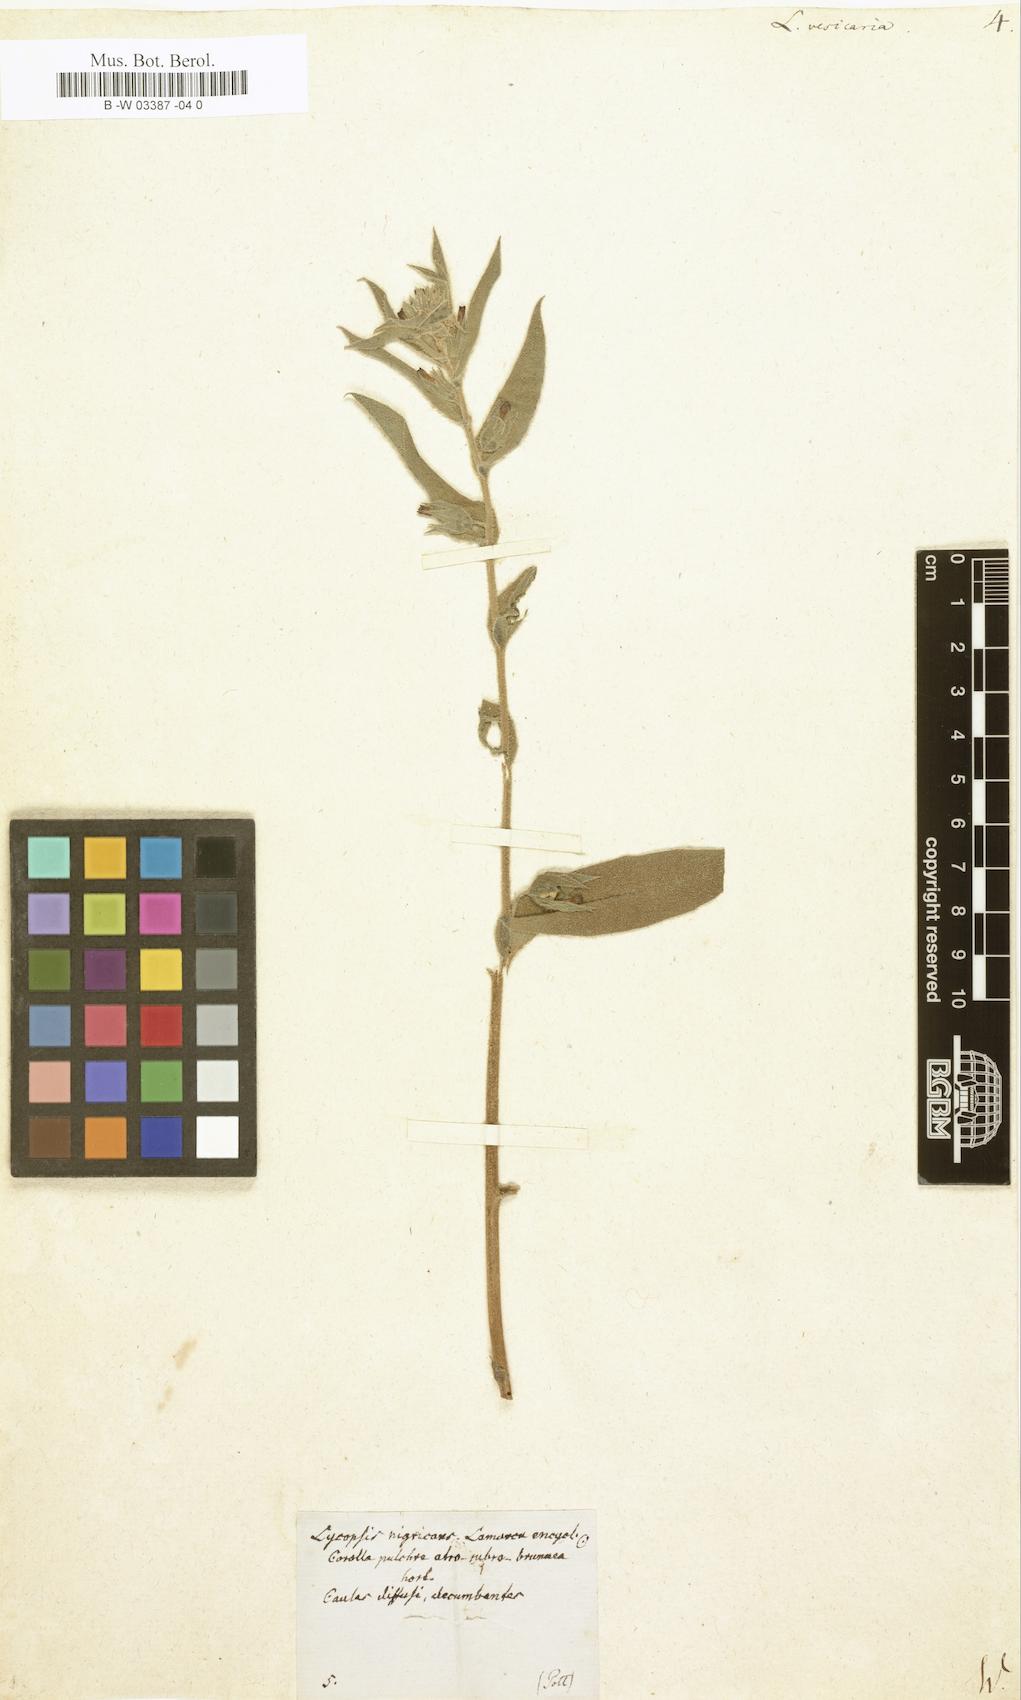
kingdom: Plantae
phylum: Tracheophyta
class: Magnoliopsida
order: Boraginales
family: Boraginaceae
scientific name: Boraginaceae
